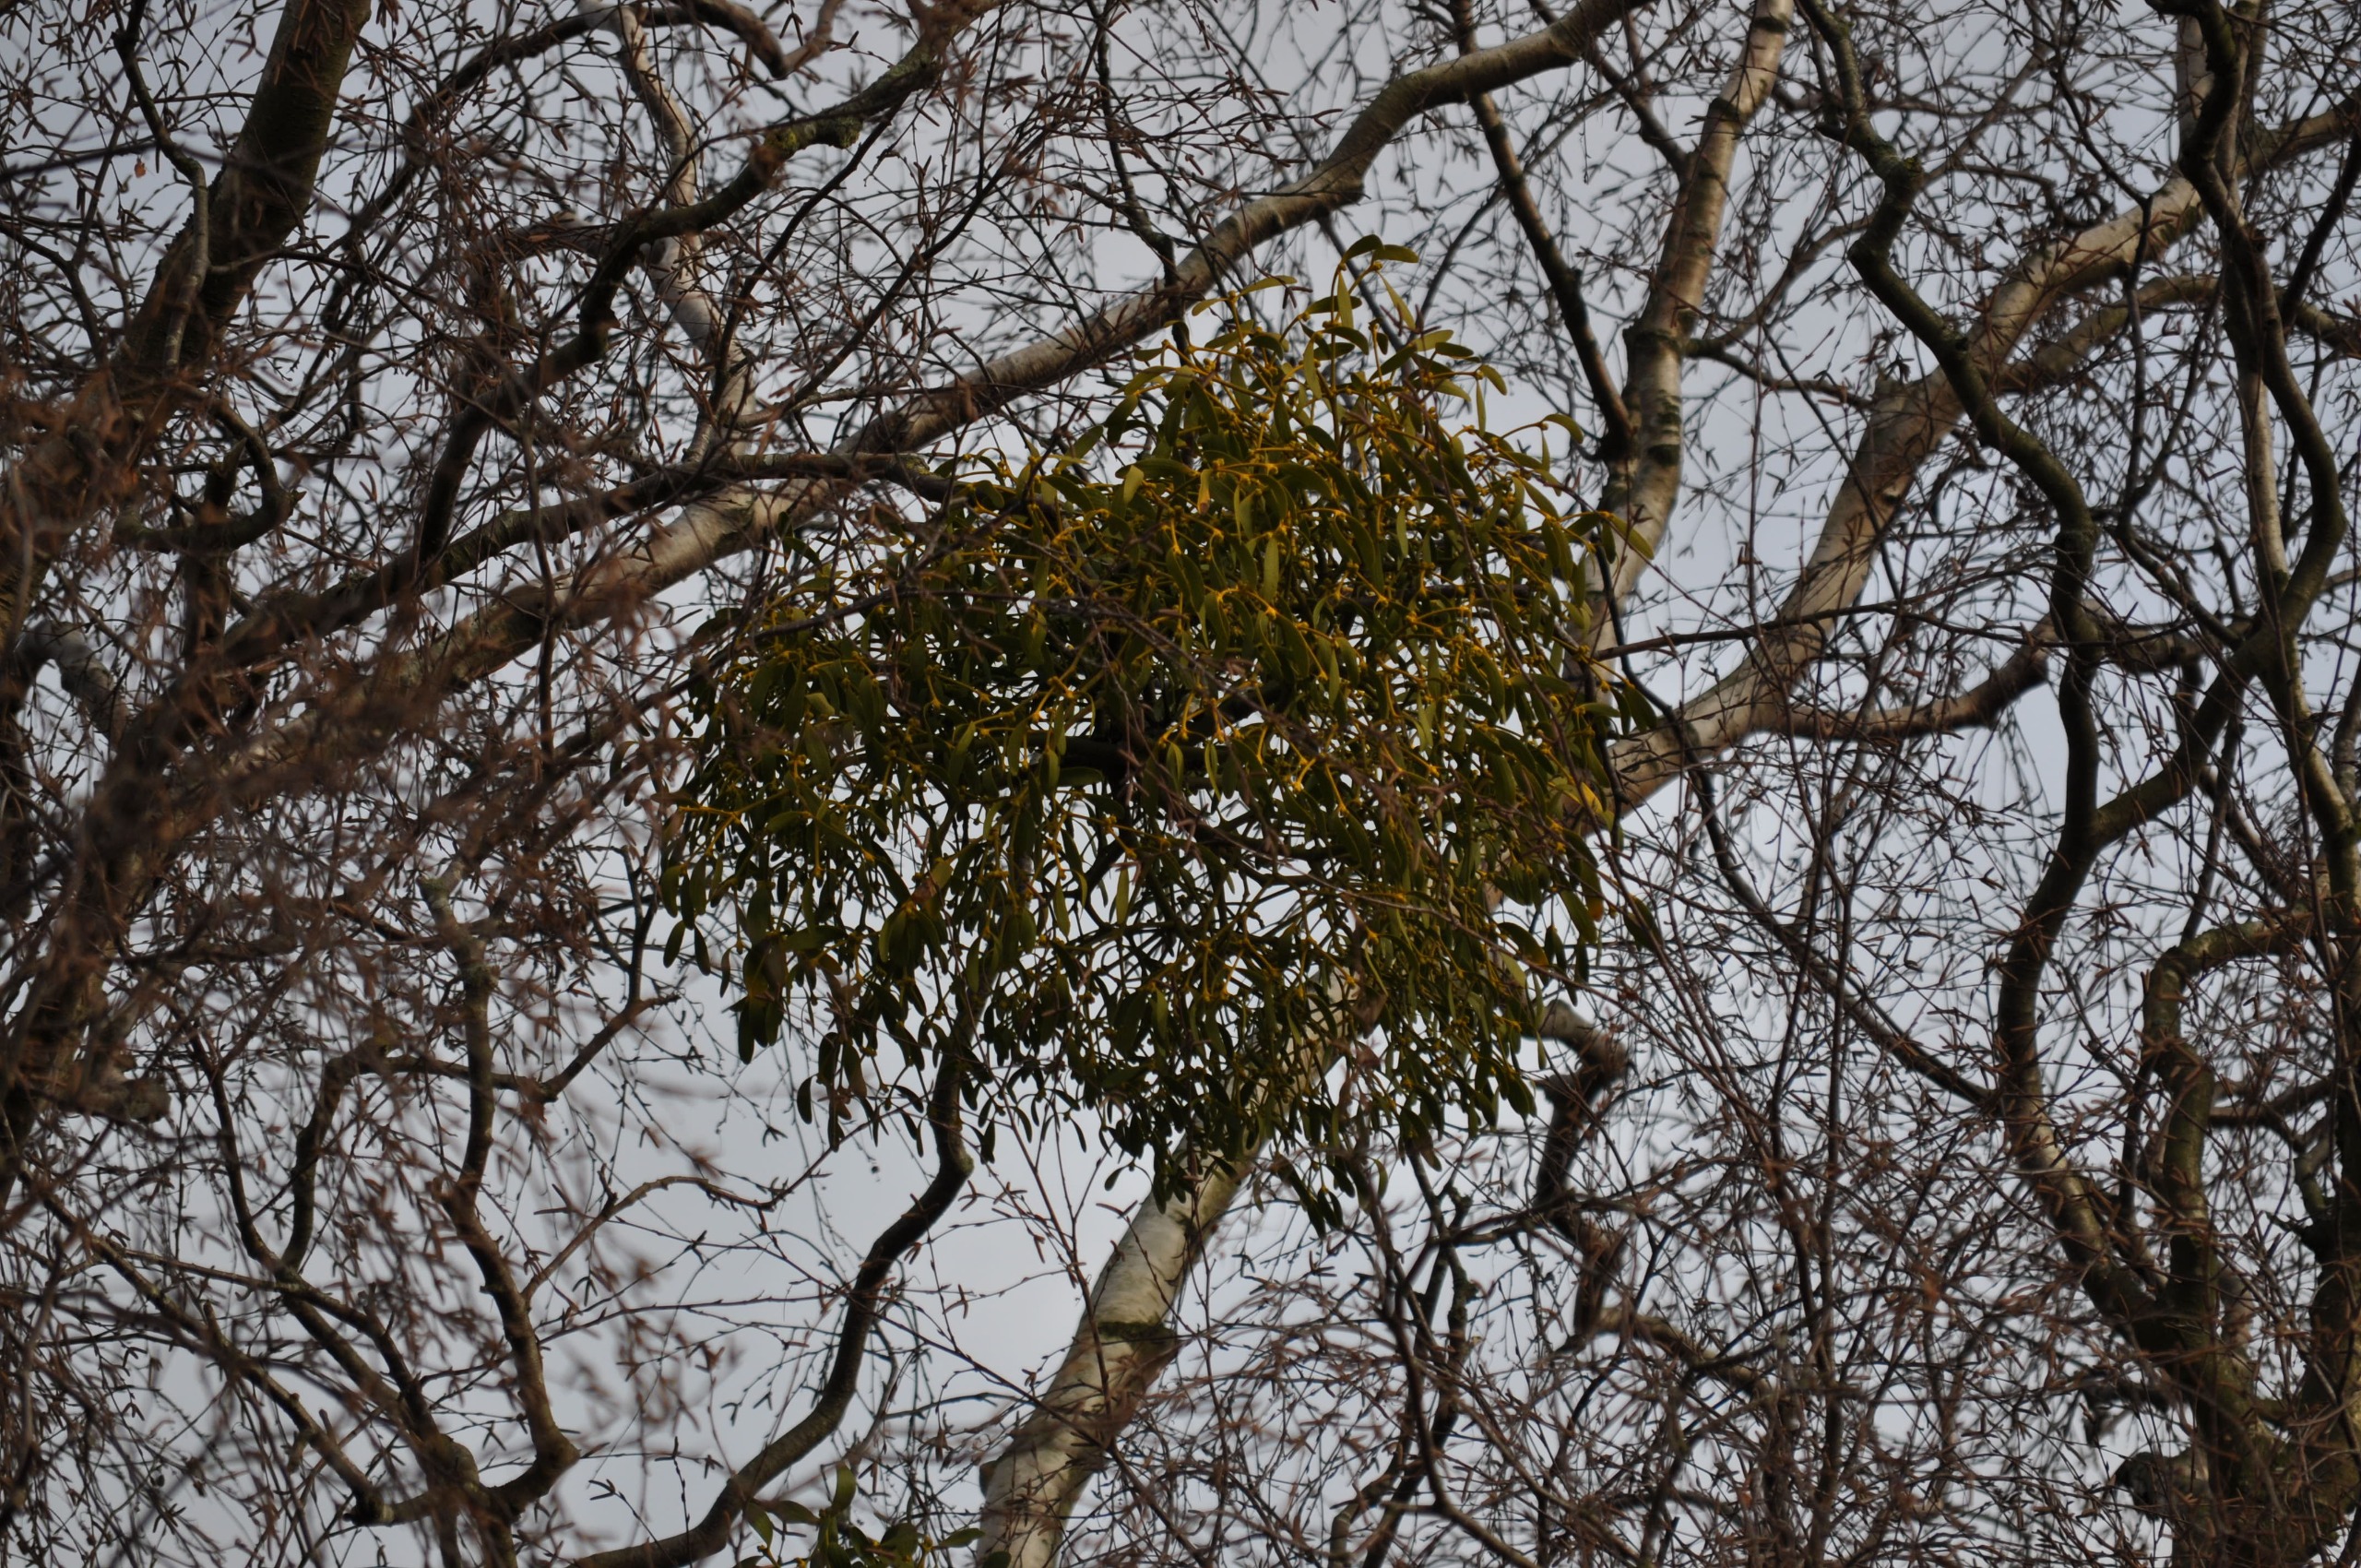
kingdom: Plantae
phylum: Tracheophyta
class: Magnoliopsida
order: Santalales
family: Viscaceae
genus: Viscum
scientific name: Viscum album
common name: Mistelten
